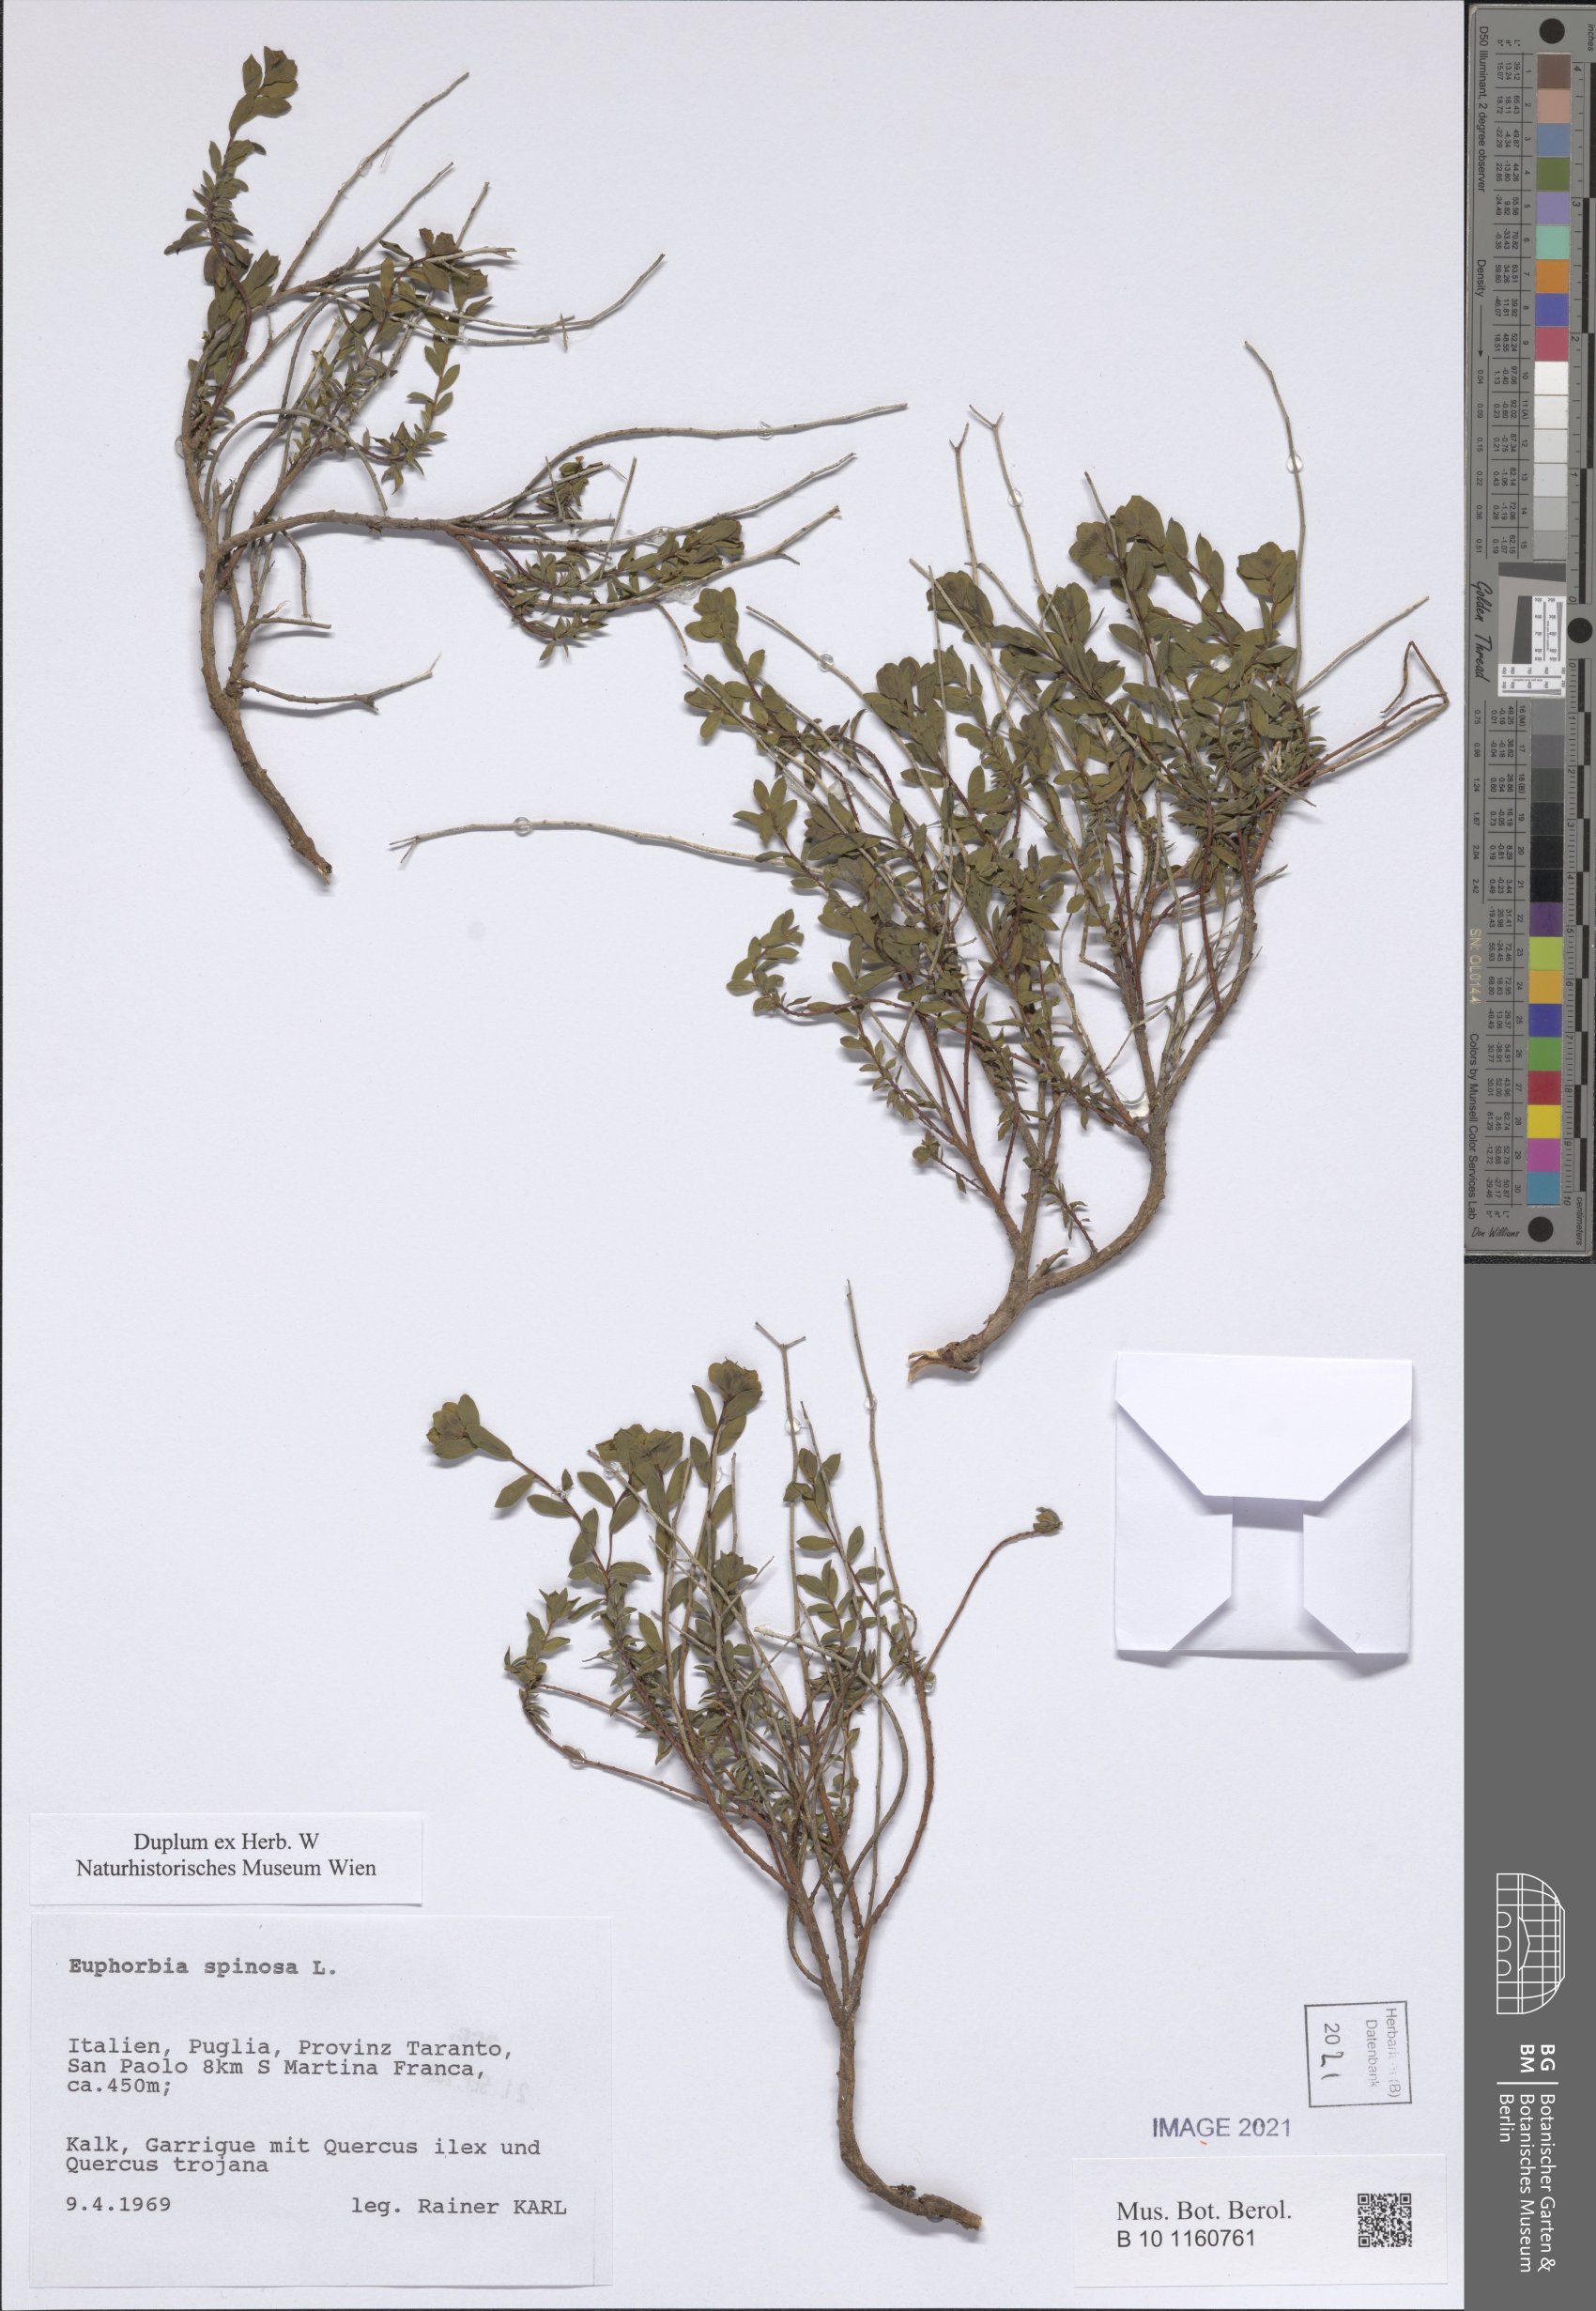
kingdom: Plantae
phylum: Tracheophyta
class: Magnoliopsida
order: Malpighiales
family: Euphorbiaceae
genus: Euphorbia
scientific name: Euphorbia spinosa
